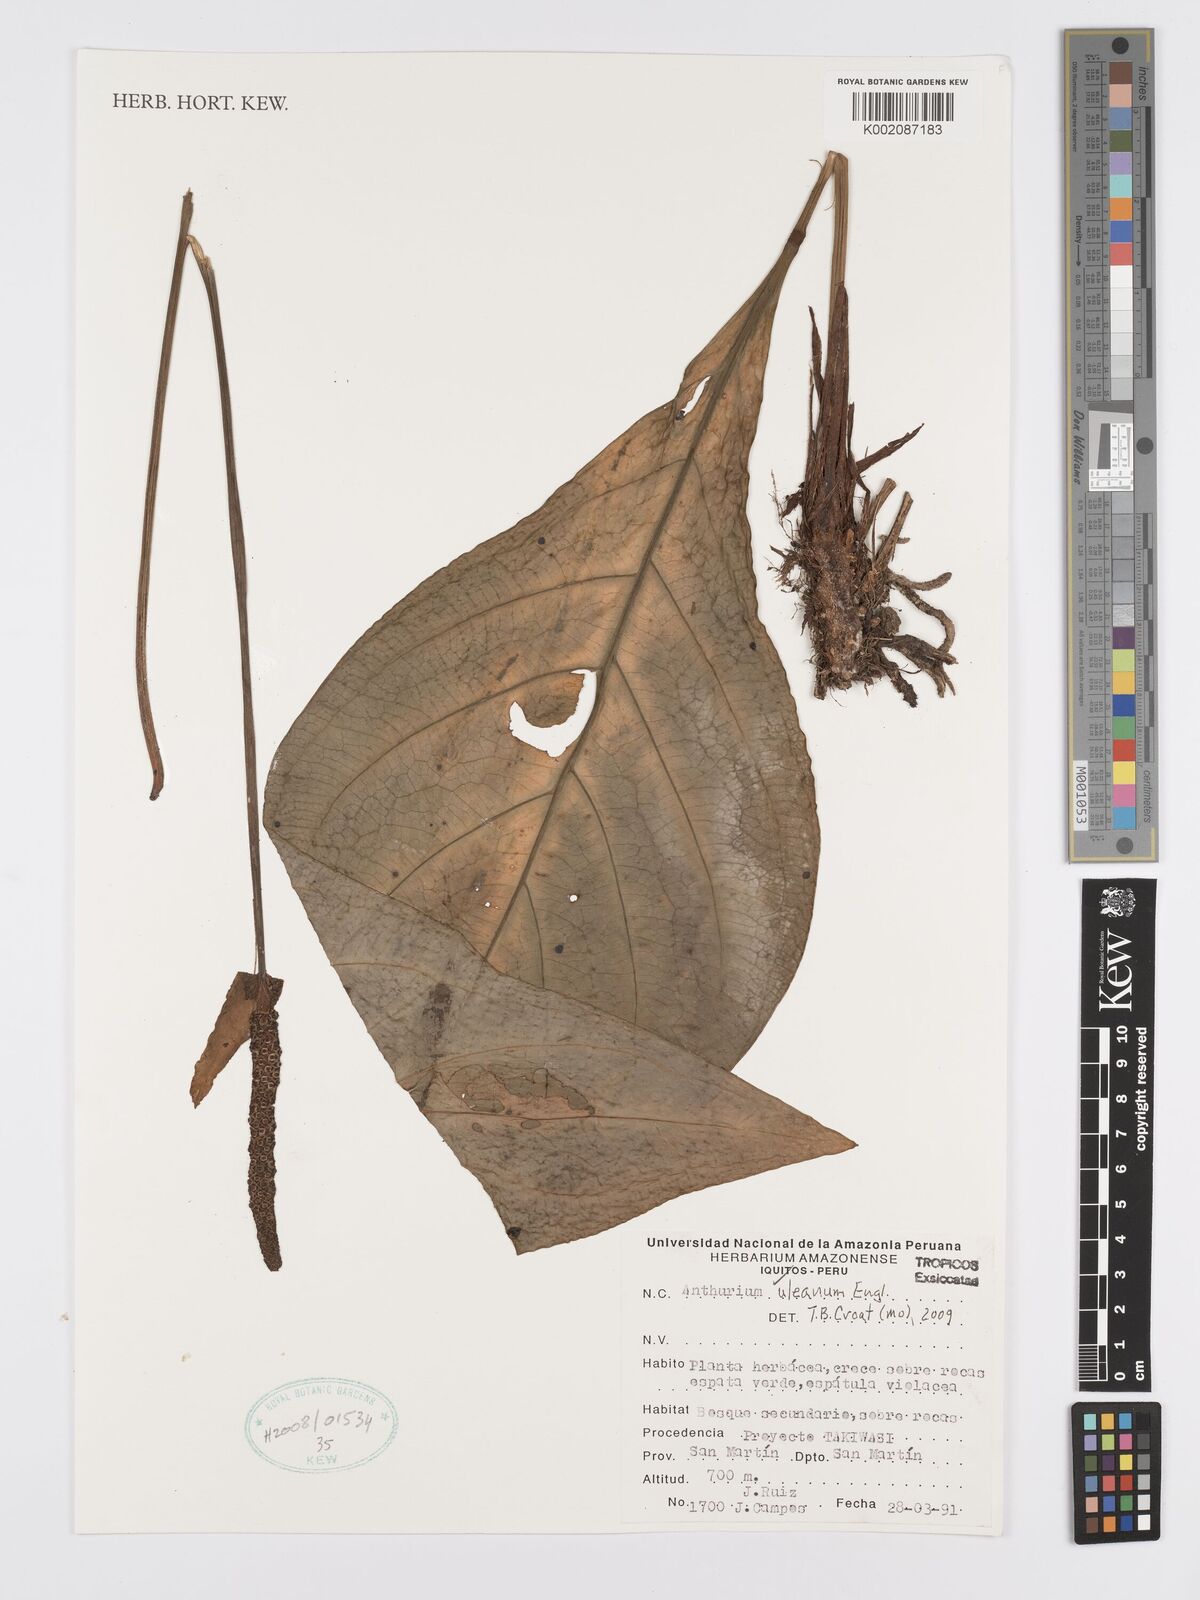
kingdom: Plantae
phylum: Tracheophyta
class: Liliopsida
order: Alismatales
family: Araceae
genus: Anthurium
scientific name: Anthurium uleanum
